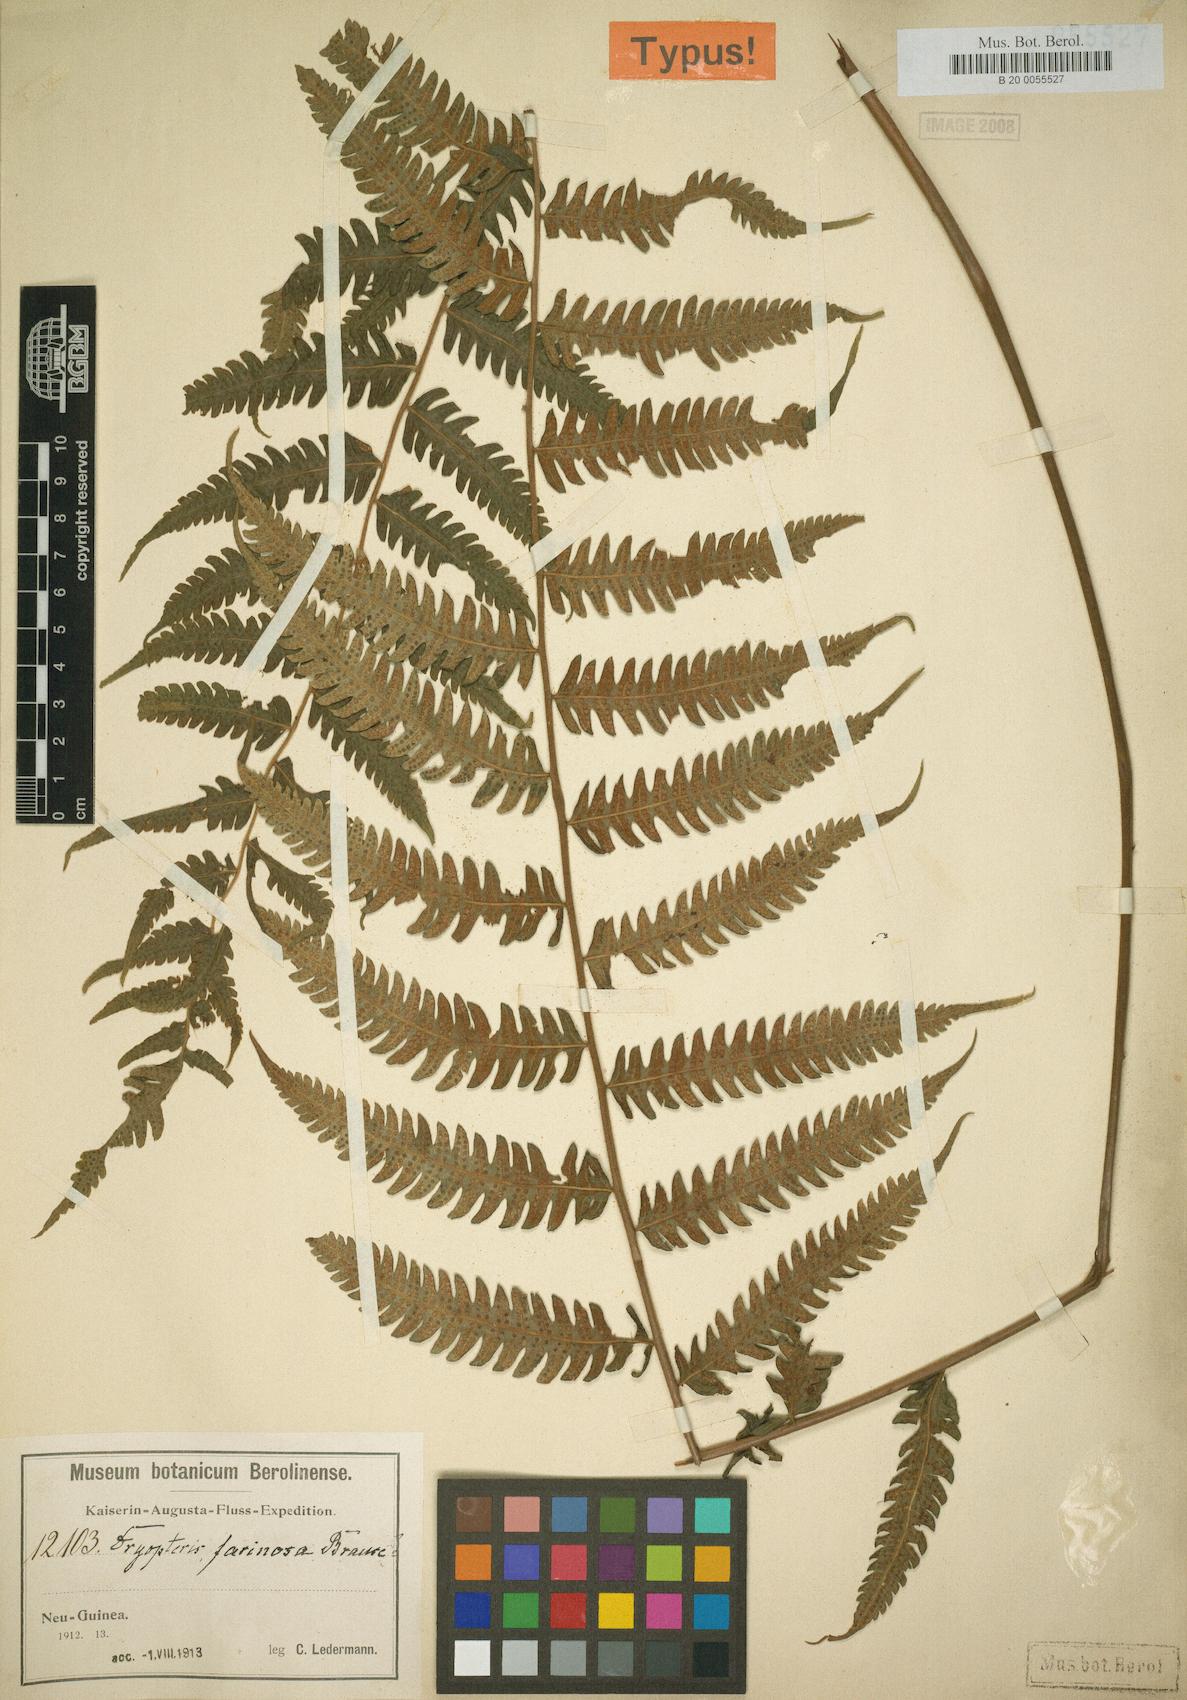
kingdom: Plantae
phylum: Tracheophyta
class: Polypodiopsida
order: Polypodiales
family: Thelypteridaceae
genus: Sphaerostephanos
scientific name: Sphaerostephanos mundus
